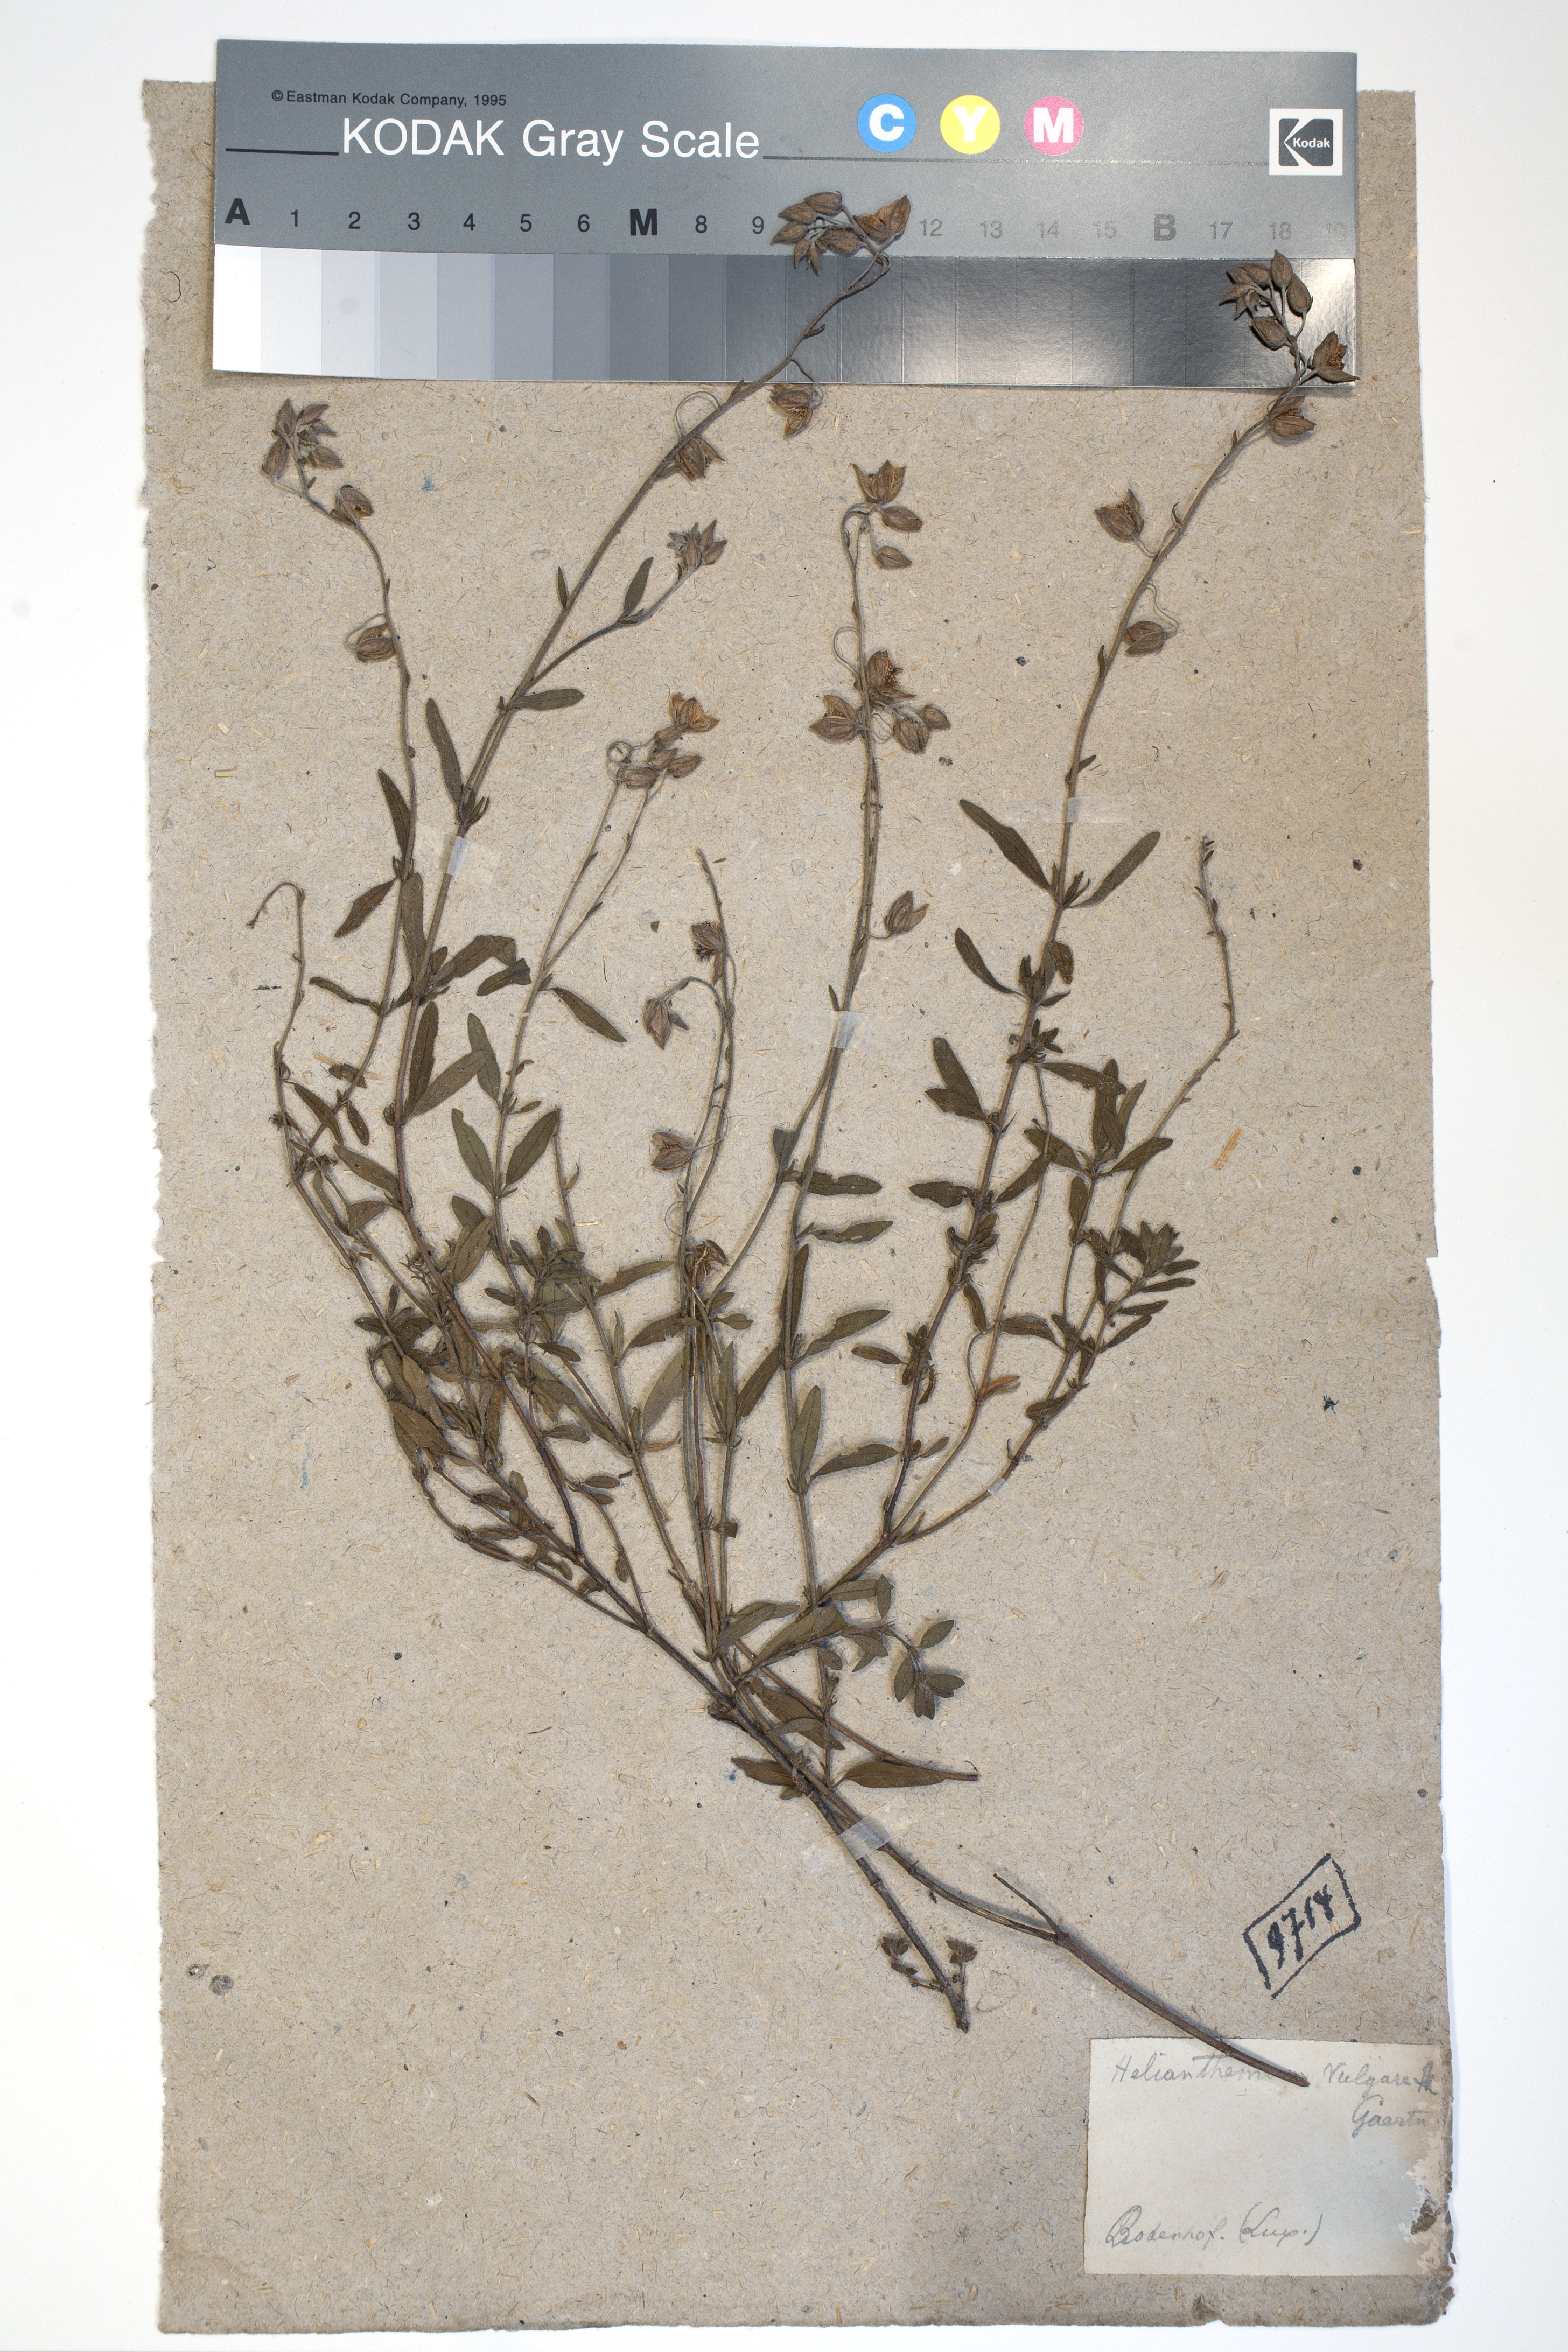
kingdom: Plantae
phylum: Tracheophyta
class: Magnoliopsida
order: Malvales
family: Cistaceae
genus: Helianthemum
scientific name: Helianthemum nummularium
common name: Common rock-rose
